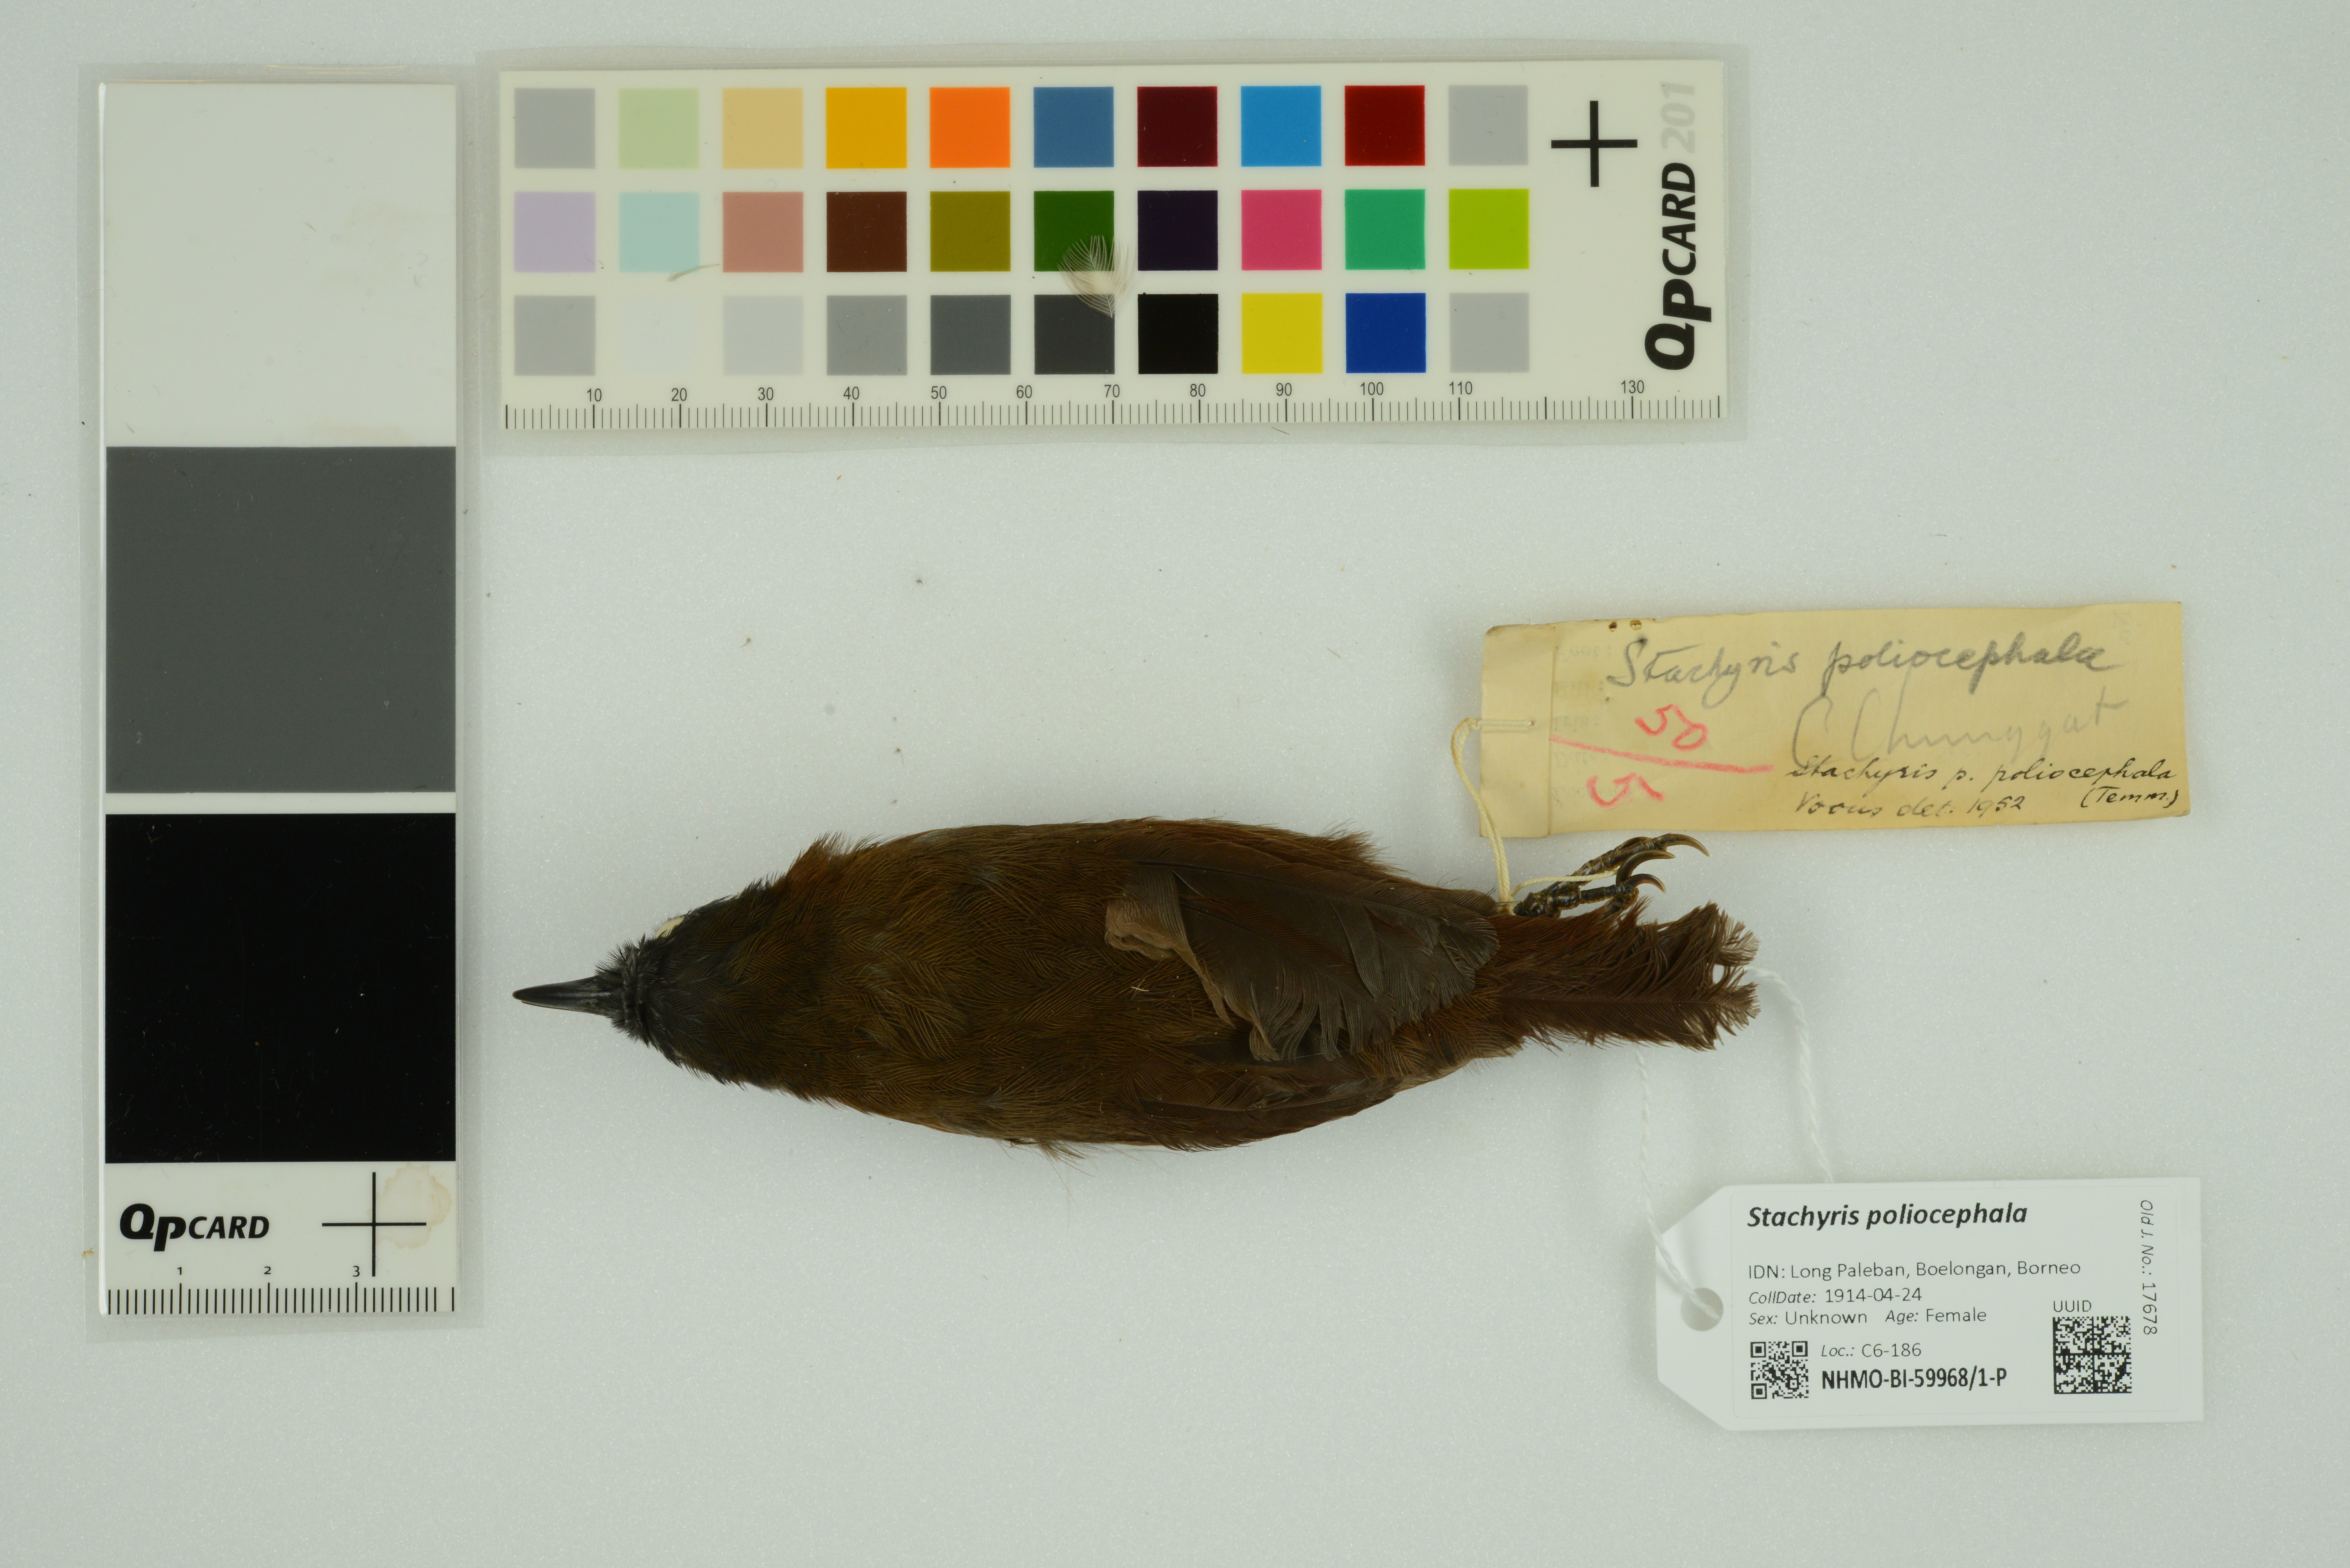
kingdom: Animalia
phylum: Chordata
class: Aves
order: Passeriformes
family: Timaliidae
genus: Stachyris
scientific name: Stachyris poliocephala
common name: Grey-headed babbler
